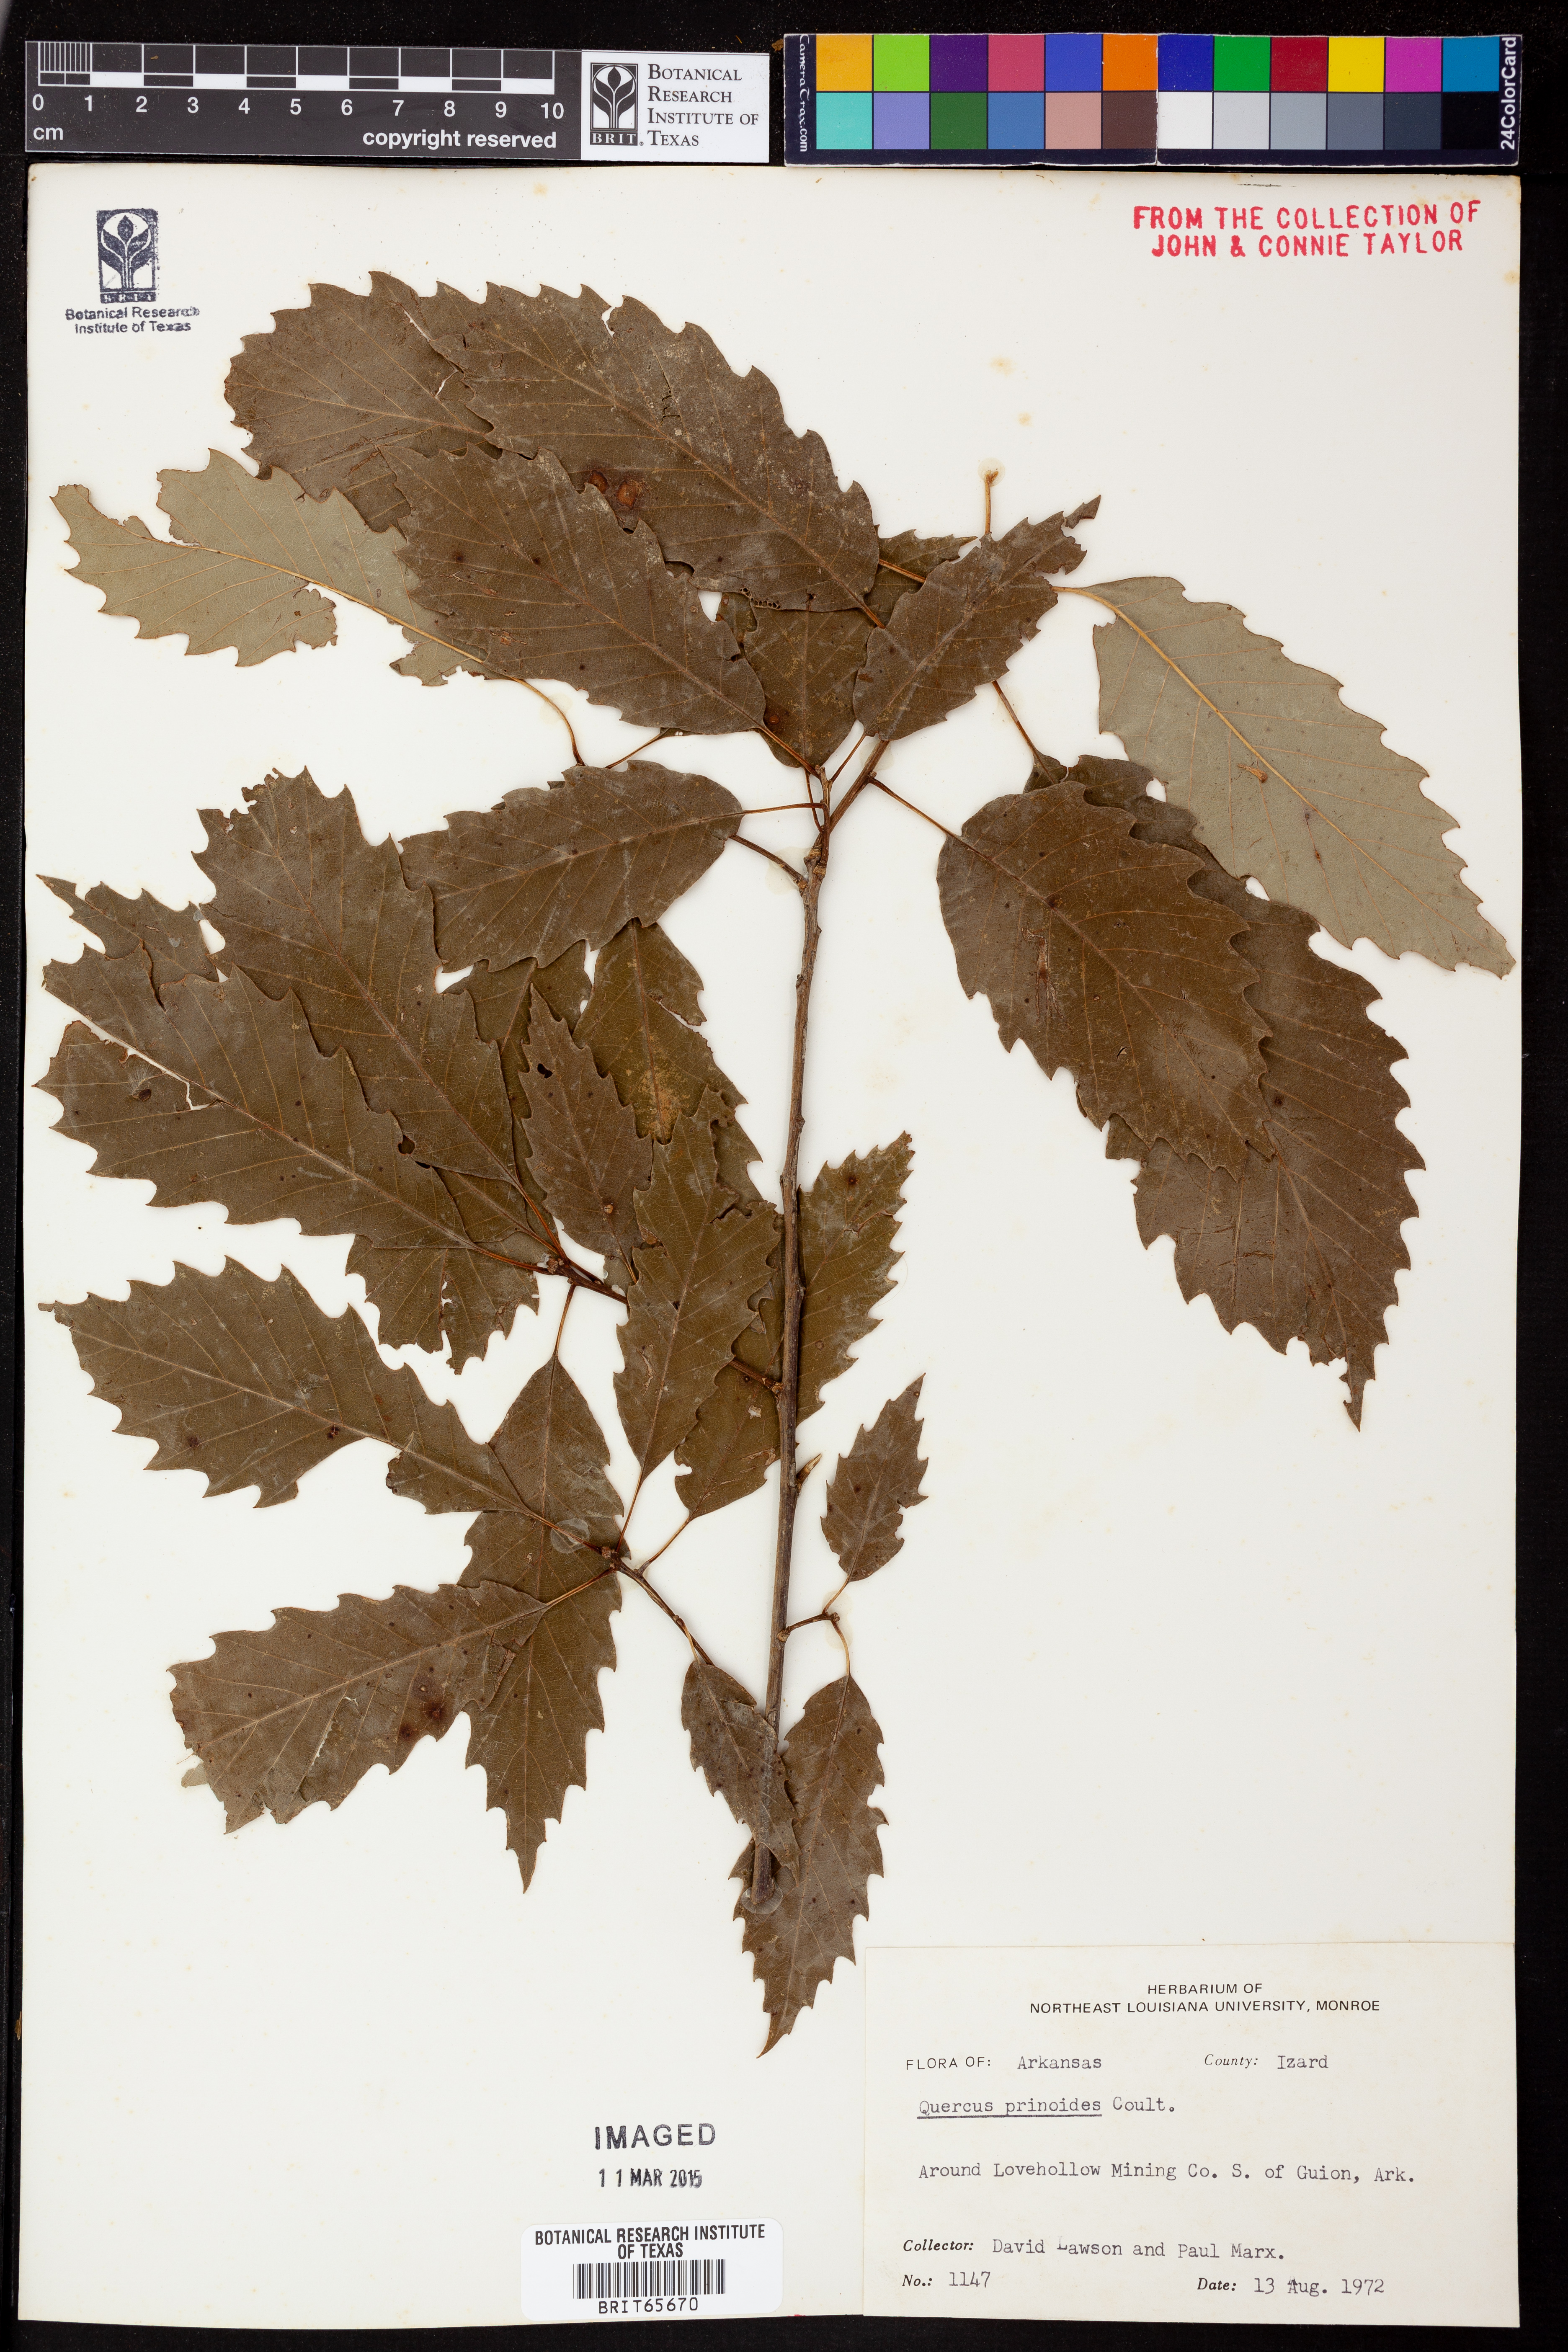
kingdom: Plantae
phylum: Tracheophyta
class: Magnoliopsida
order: Fagales
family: Fagaceae
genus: Quercus
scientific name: Quercus prinoides
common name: Dwarf chinkapin oak
